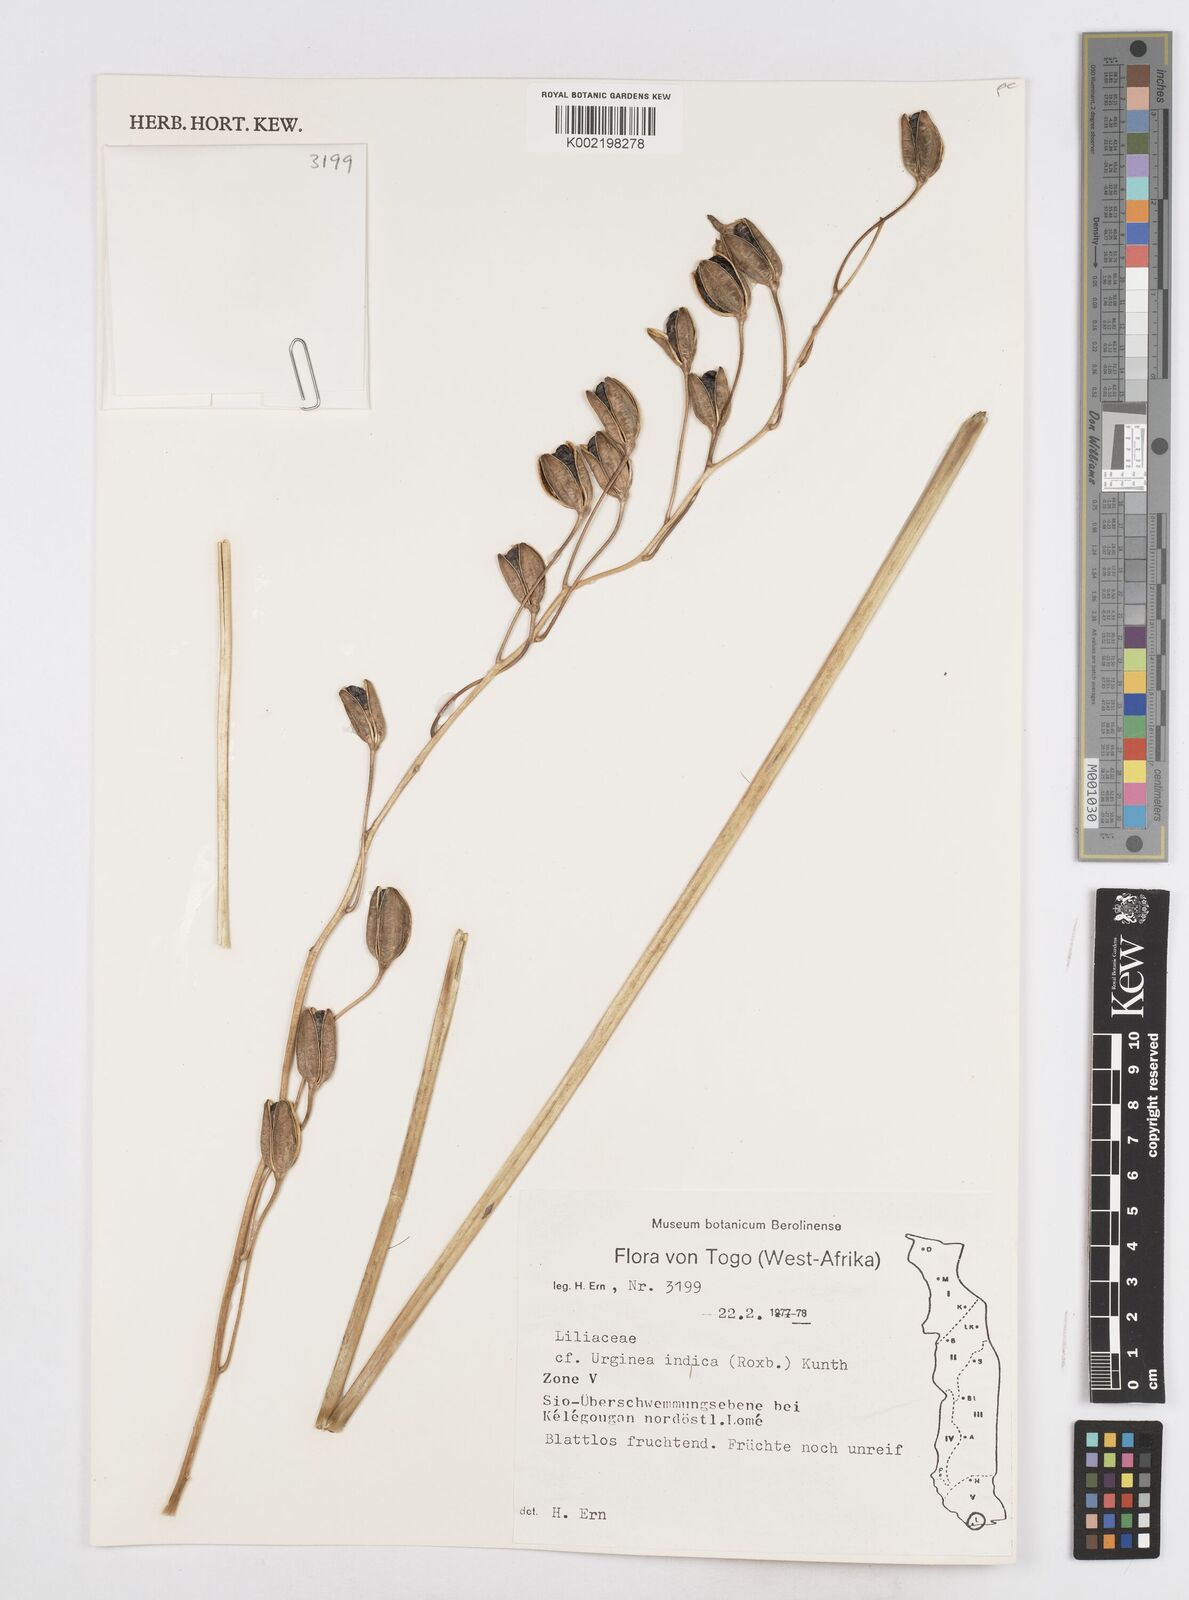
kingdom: Plantae
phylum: Tracheophyta
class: Liliopsida
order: Asparagales
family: Asparagaceae
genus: Drimia
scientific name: Drimia indica
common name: Indian-squill
